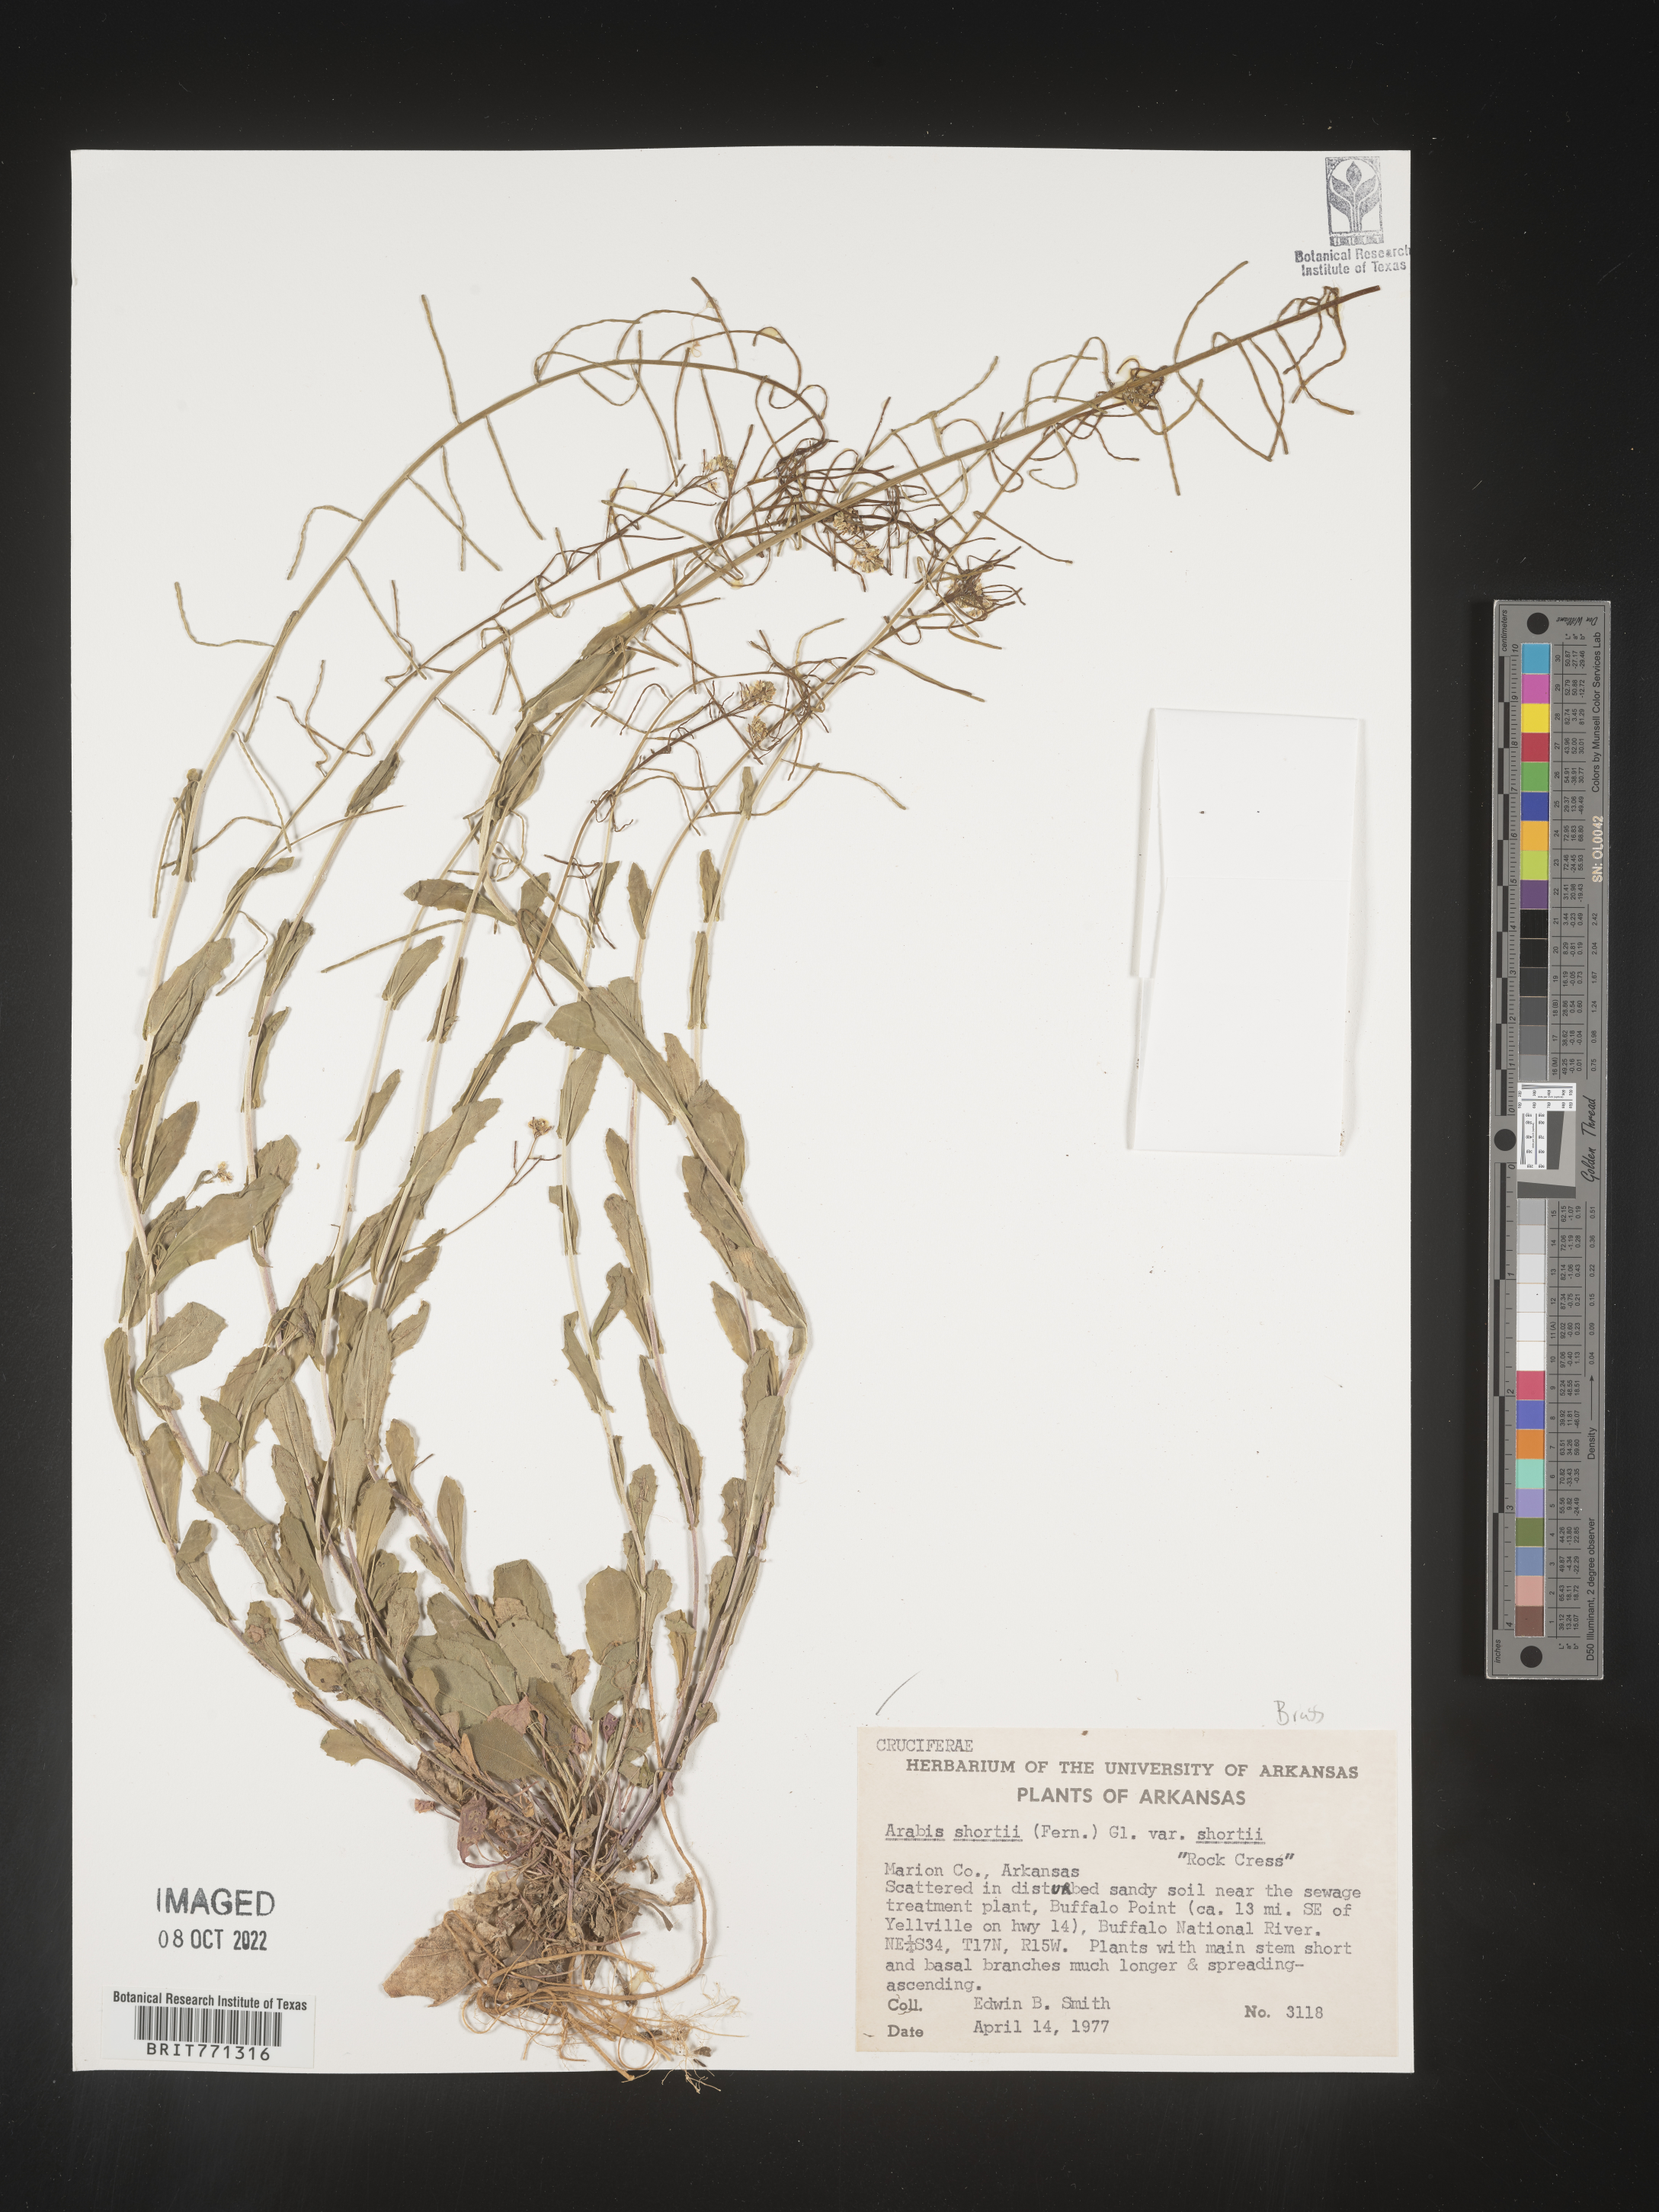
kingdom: Plantae
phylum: Tracheophyta
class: Magnoliopsida
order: Brassicales
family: Brassicaceae
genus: Arabis
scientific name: Arabis
